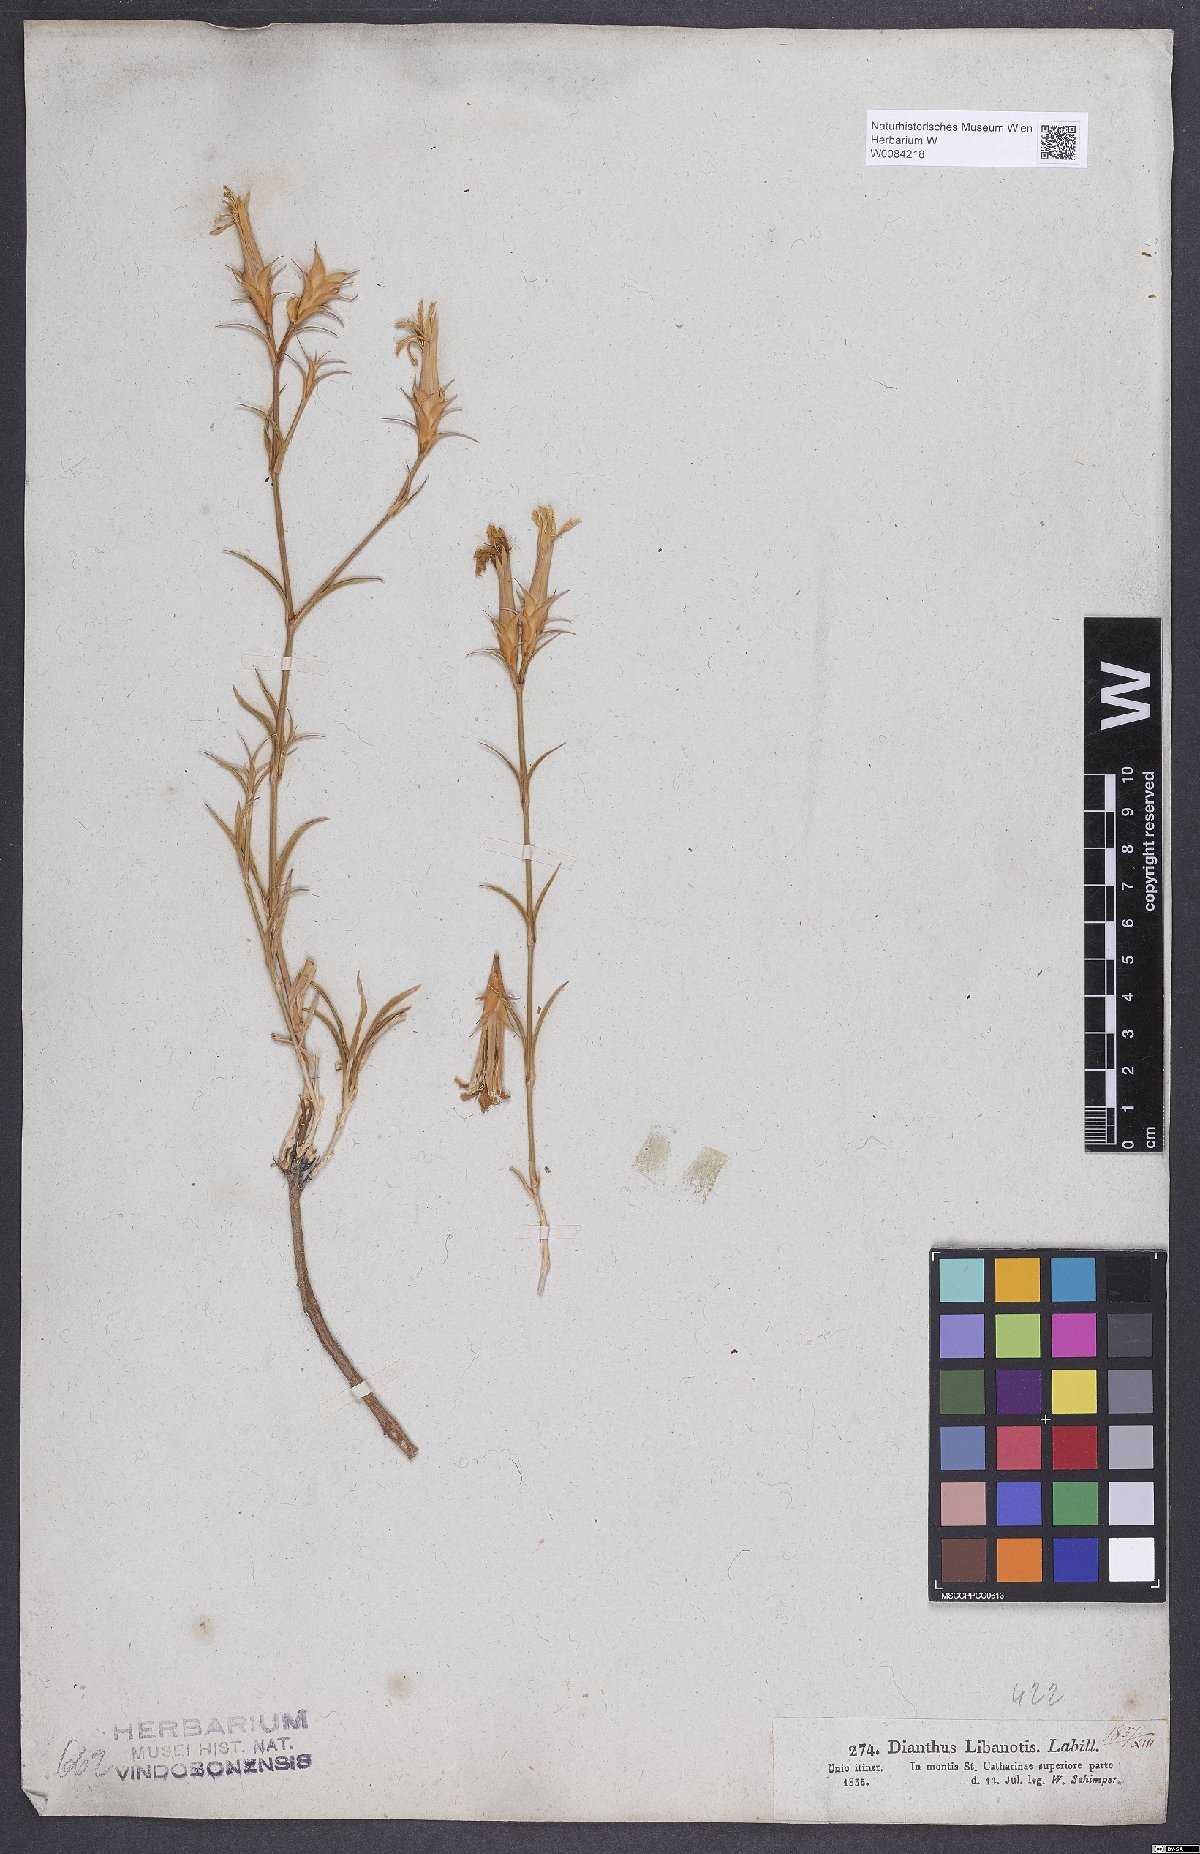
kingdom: Plantae
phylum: Tracheophyta
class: Magnoliopsida
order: Caryophyllales
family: Caryophyllaceae
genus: Dianthus
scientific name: Dianthus libanotis
